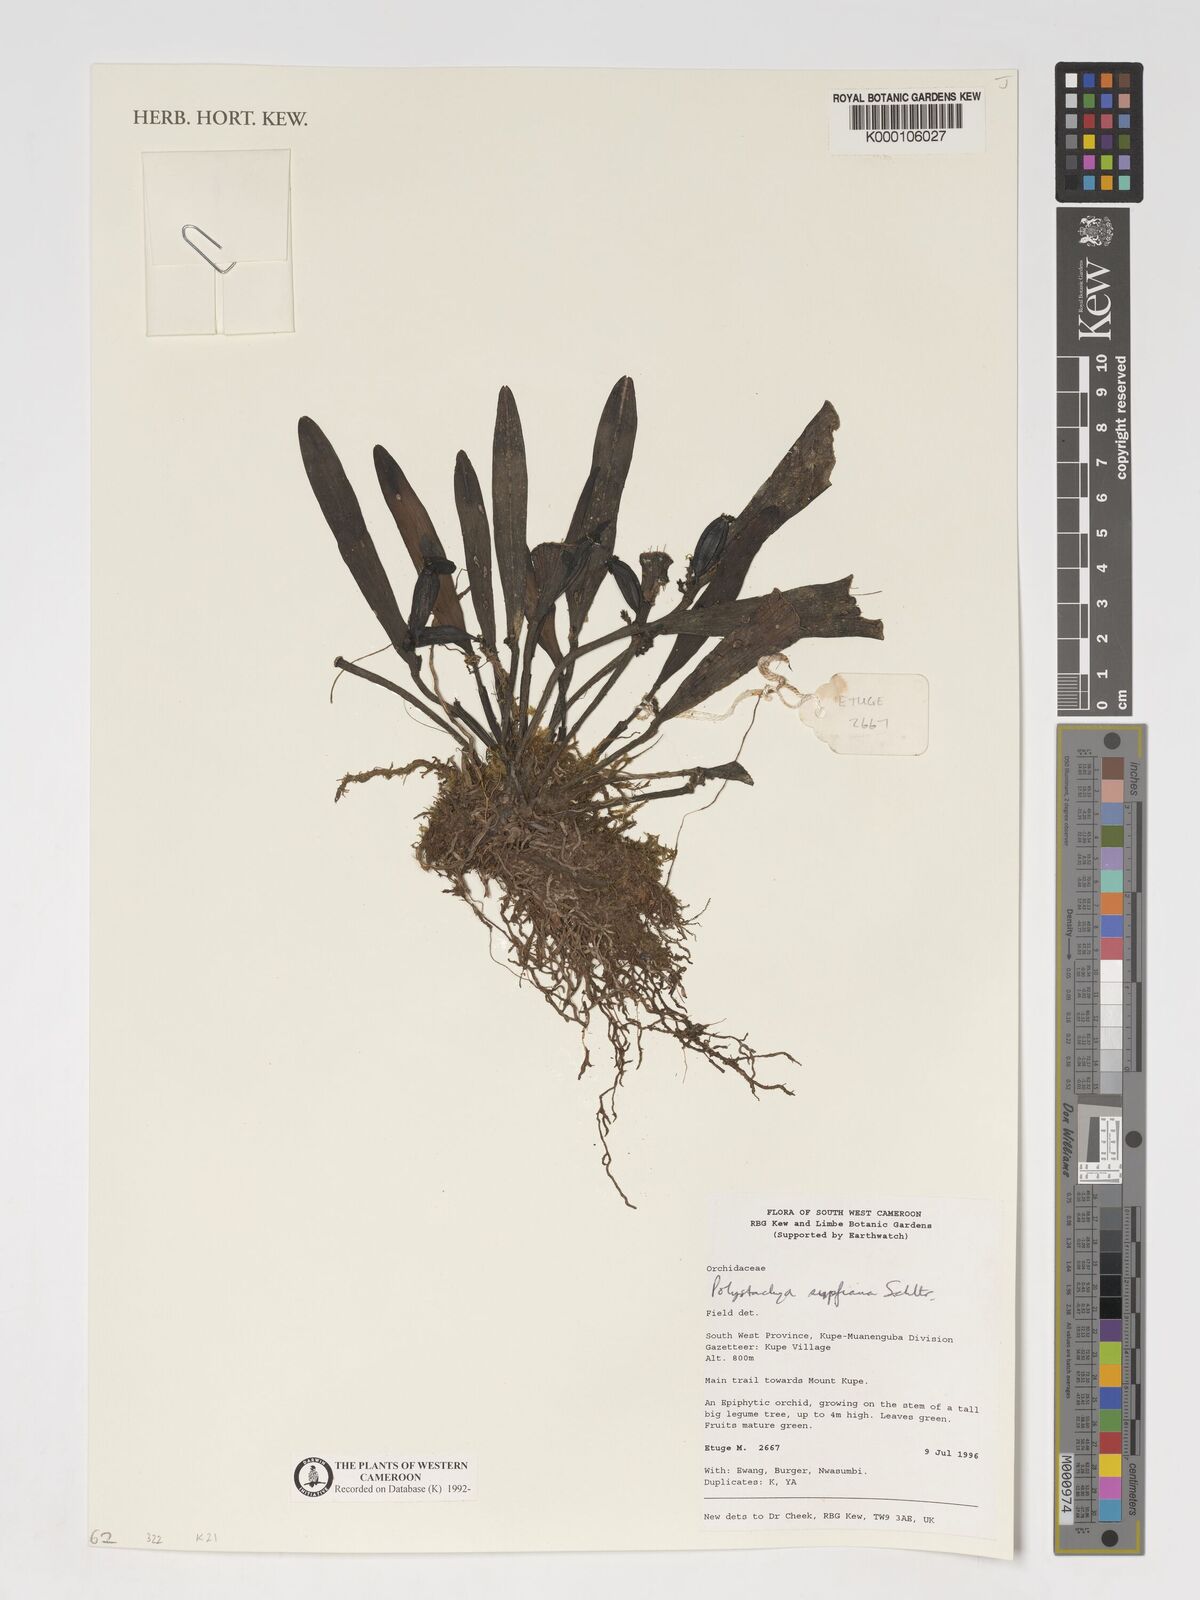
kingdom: Plantae
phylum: Tracheophyta
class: Liliopsida
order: Asparagales
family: Orchidaceae
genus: Polystachya
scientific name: Polystachya supfiana
